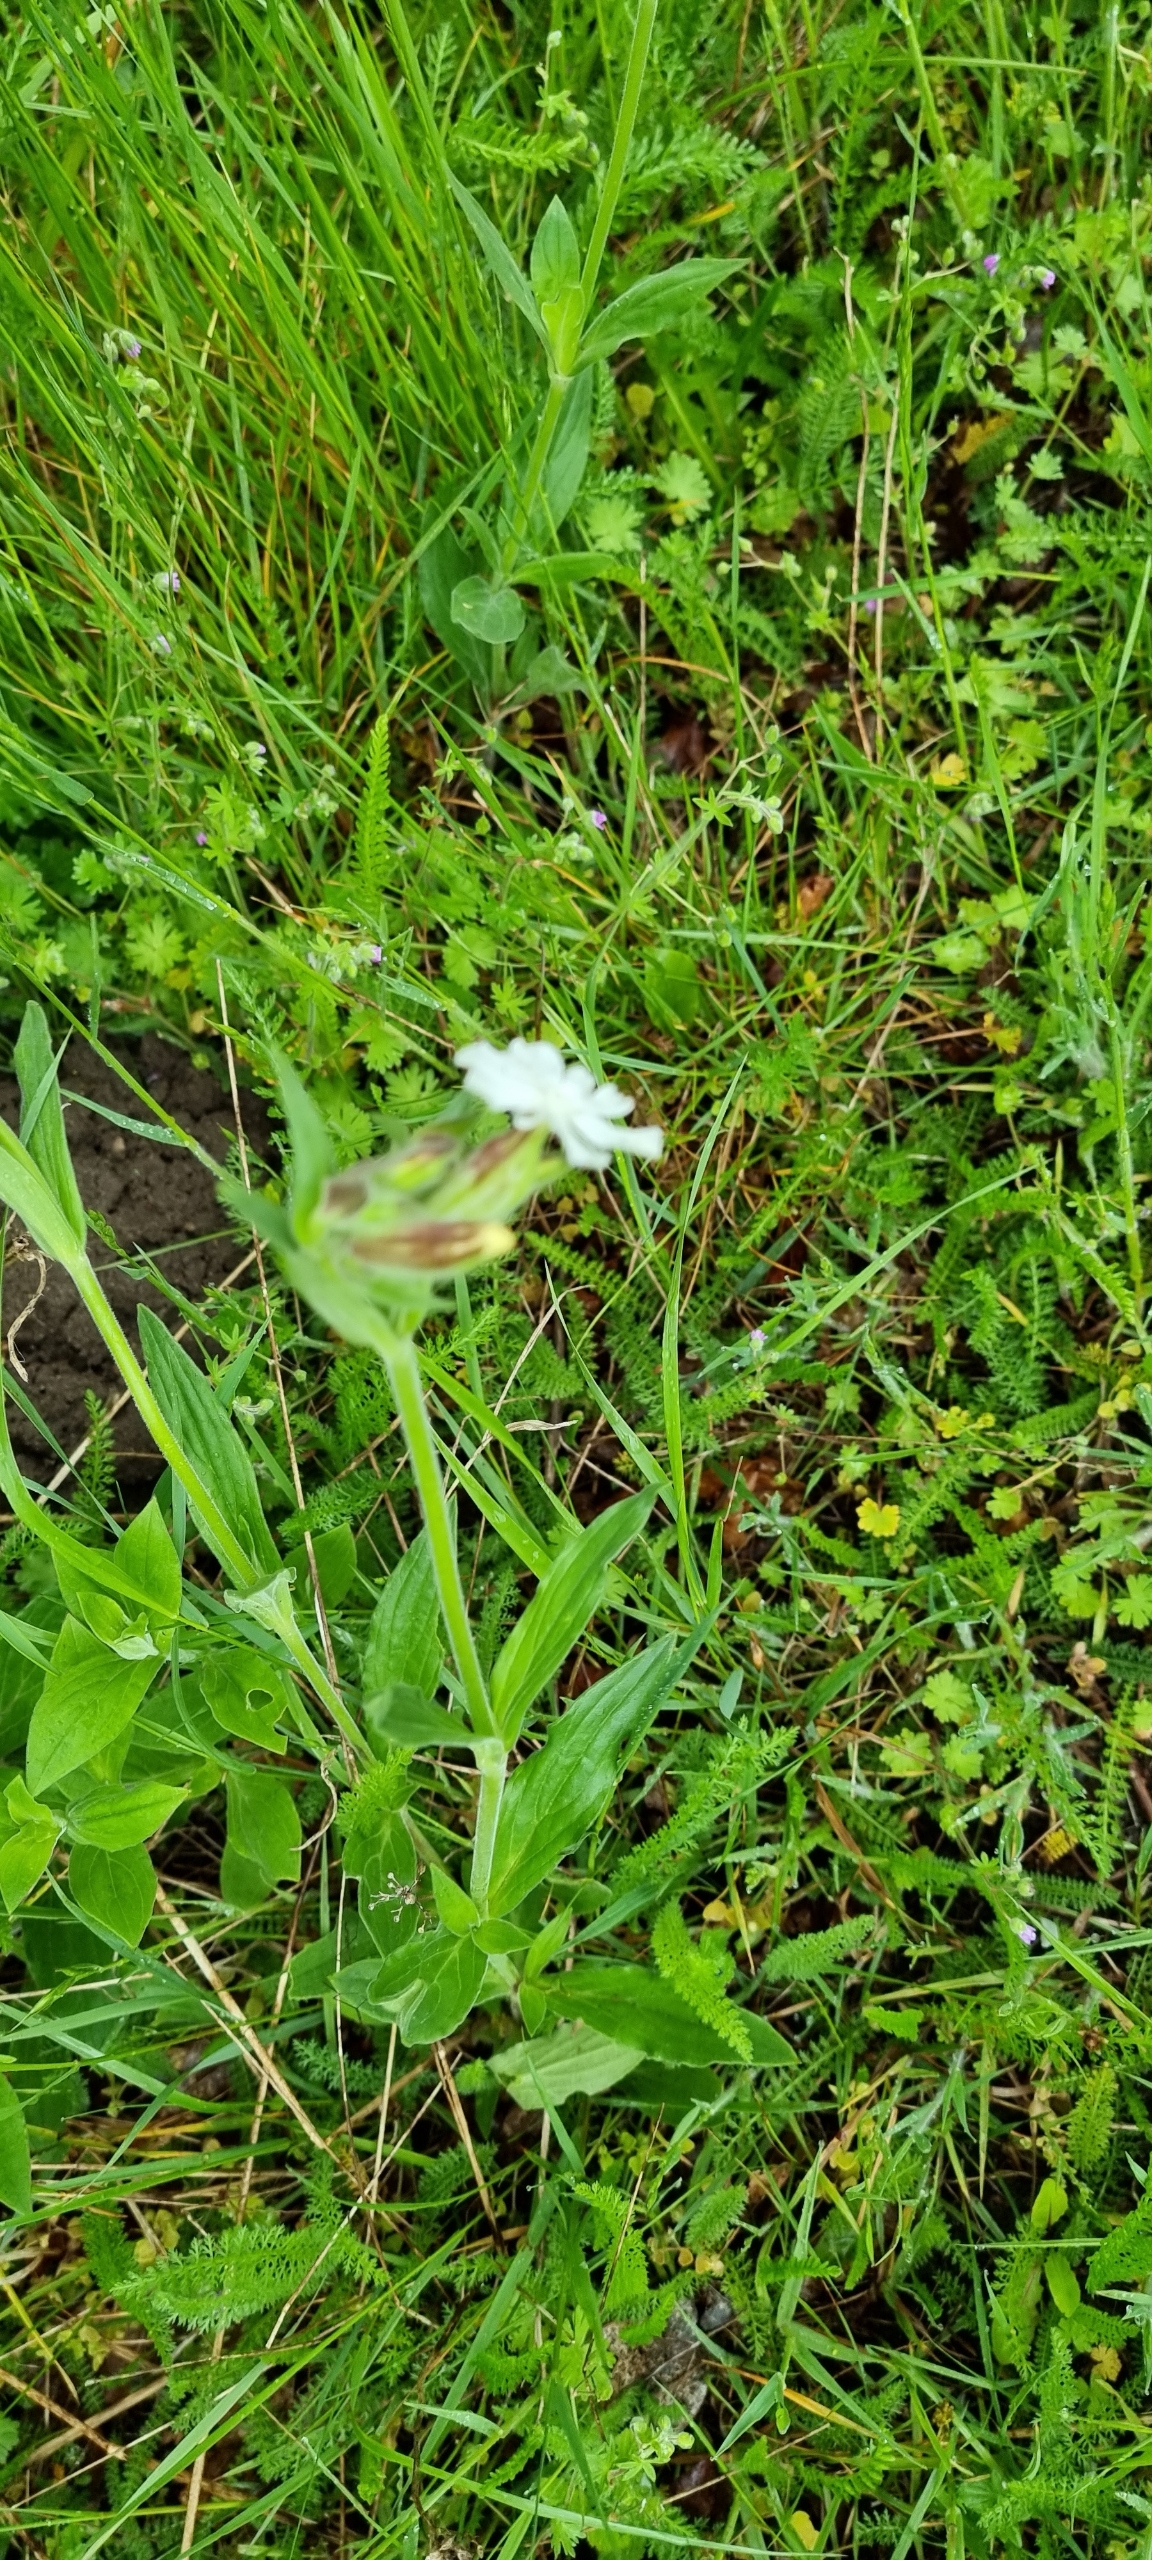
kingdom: Plantae
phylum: Tracheophyta
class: Magnoliopsida
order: Caryophyllales
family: Caryophyllaceae
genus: Silene
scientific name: Silene latifolia
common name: Aftenpragtstjerne
